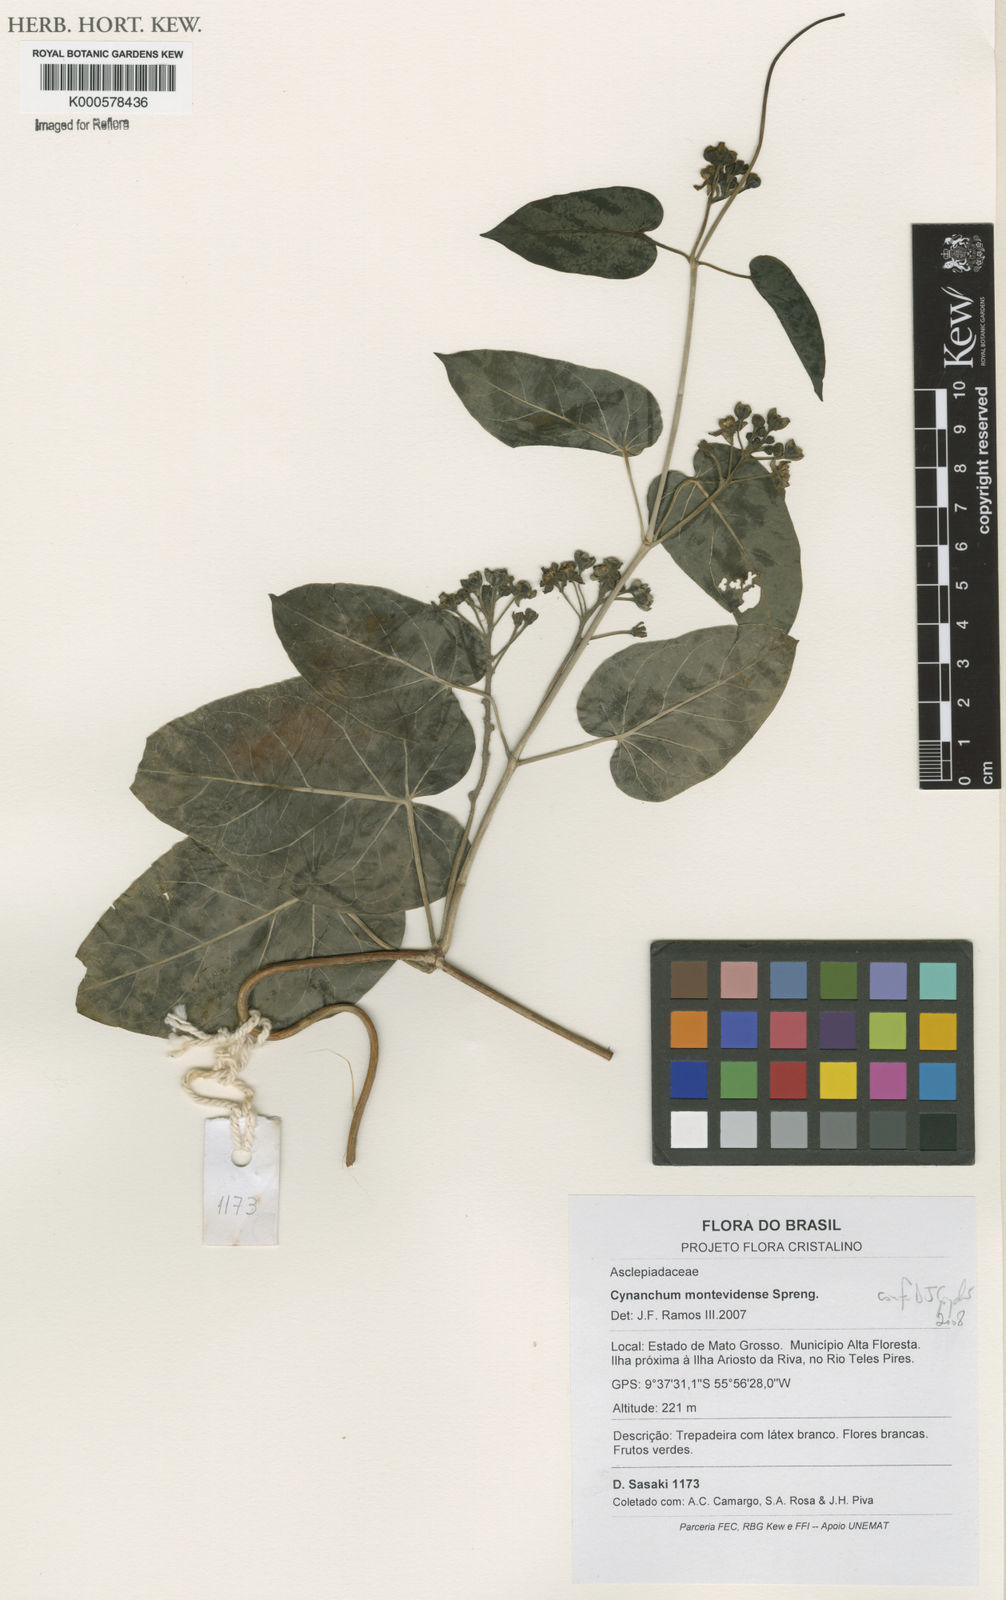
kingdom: Plantae
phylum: Tracheophyta
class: Magnoliopsida
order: Gentianales
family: Apocynaceae
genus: Cynanchum
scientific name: Cynanchum montevidense
